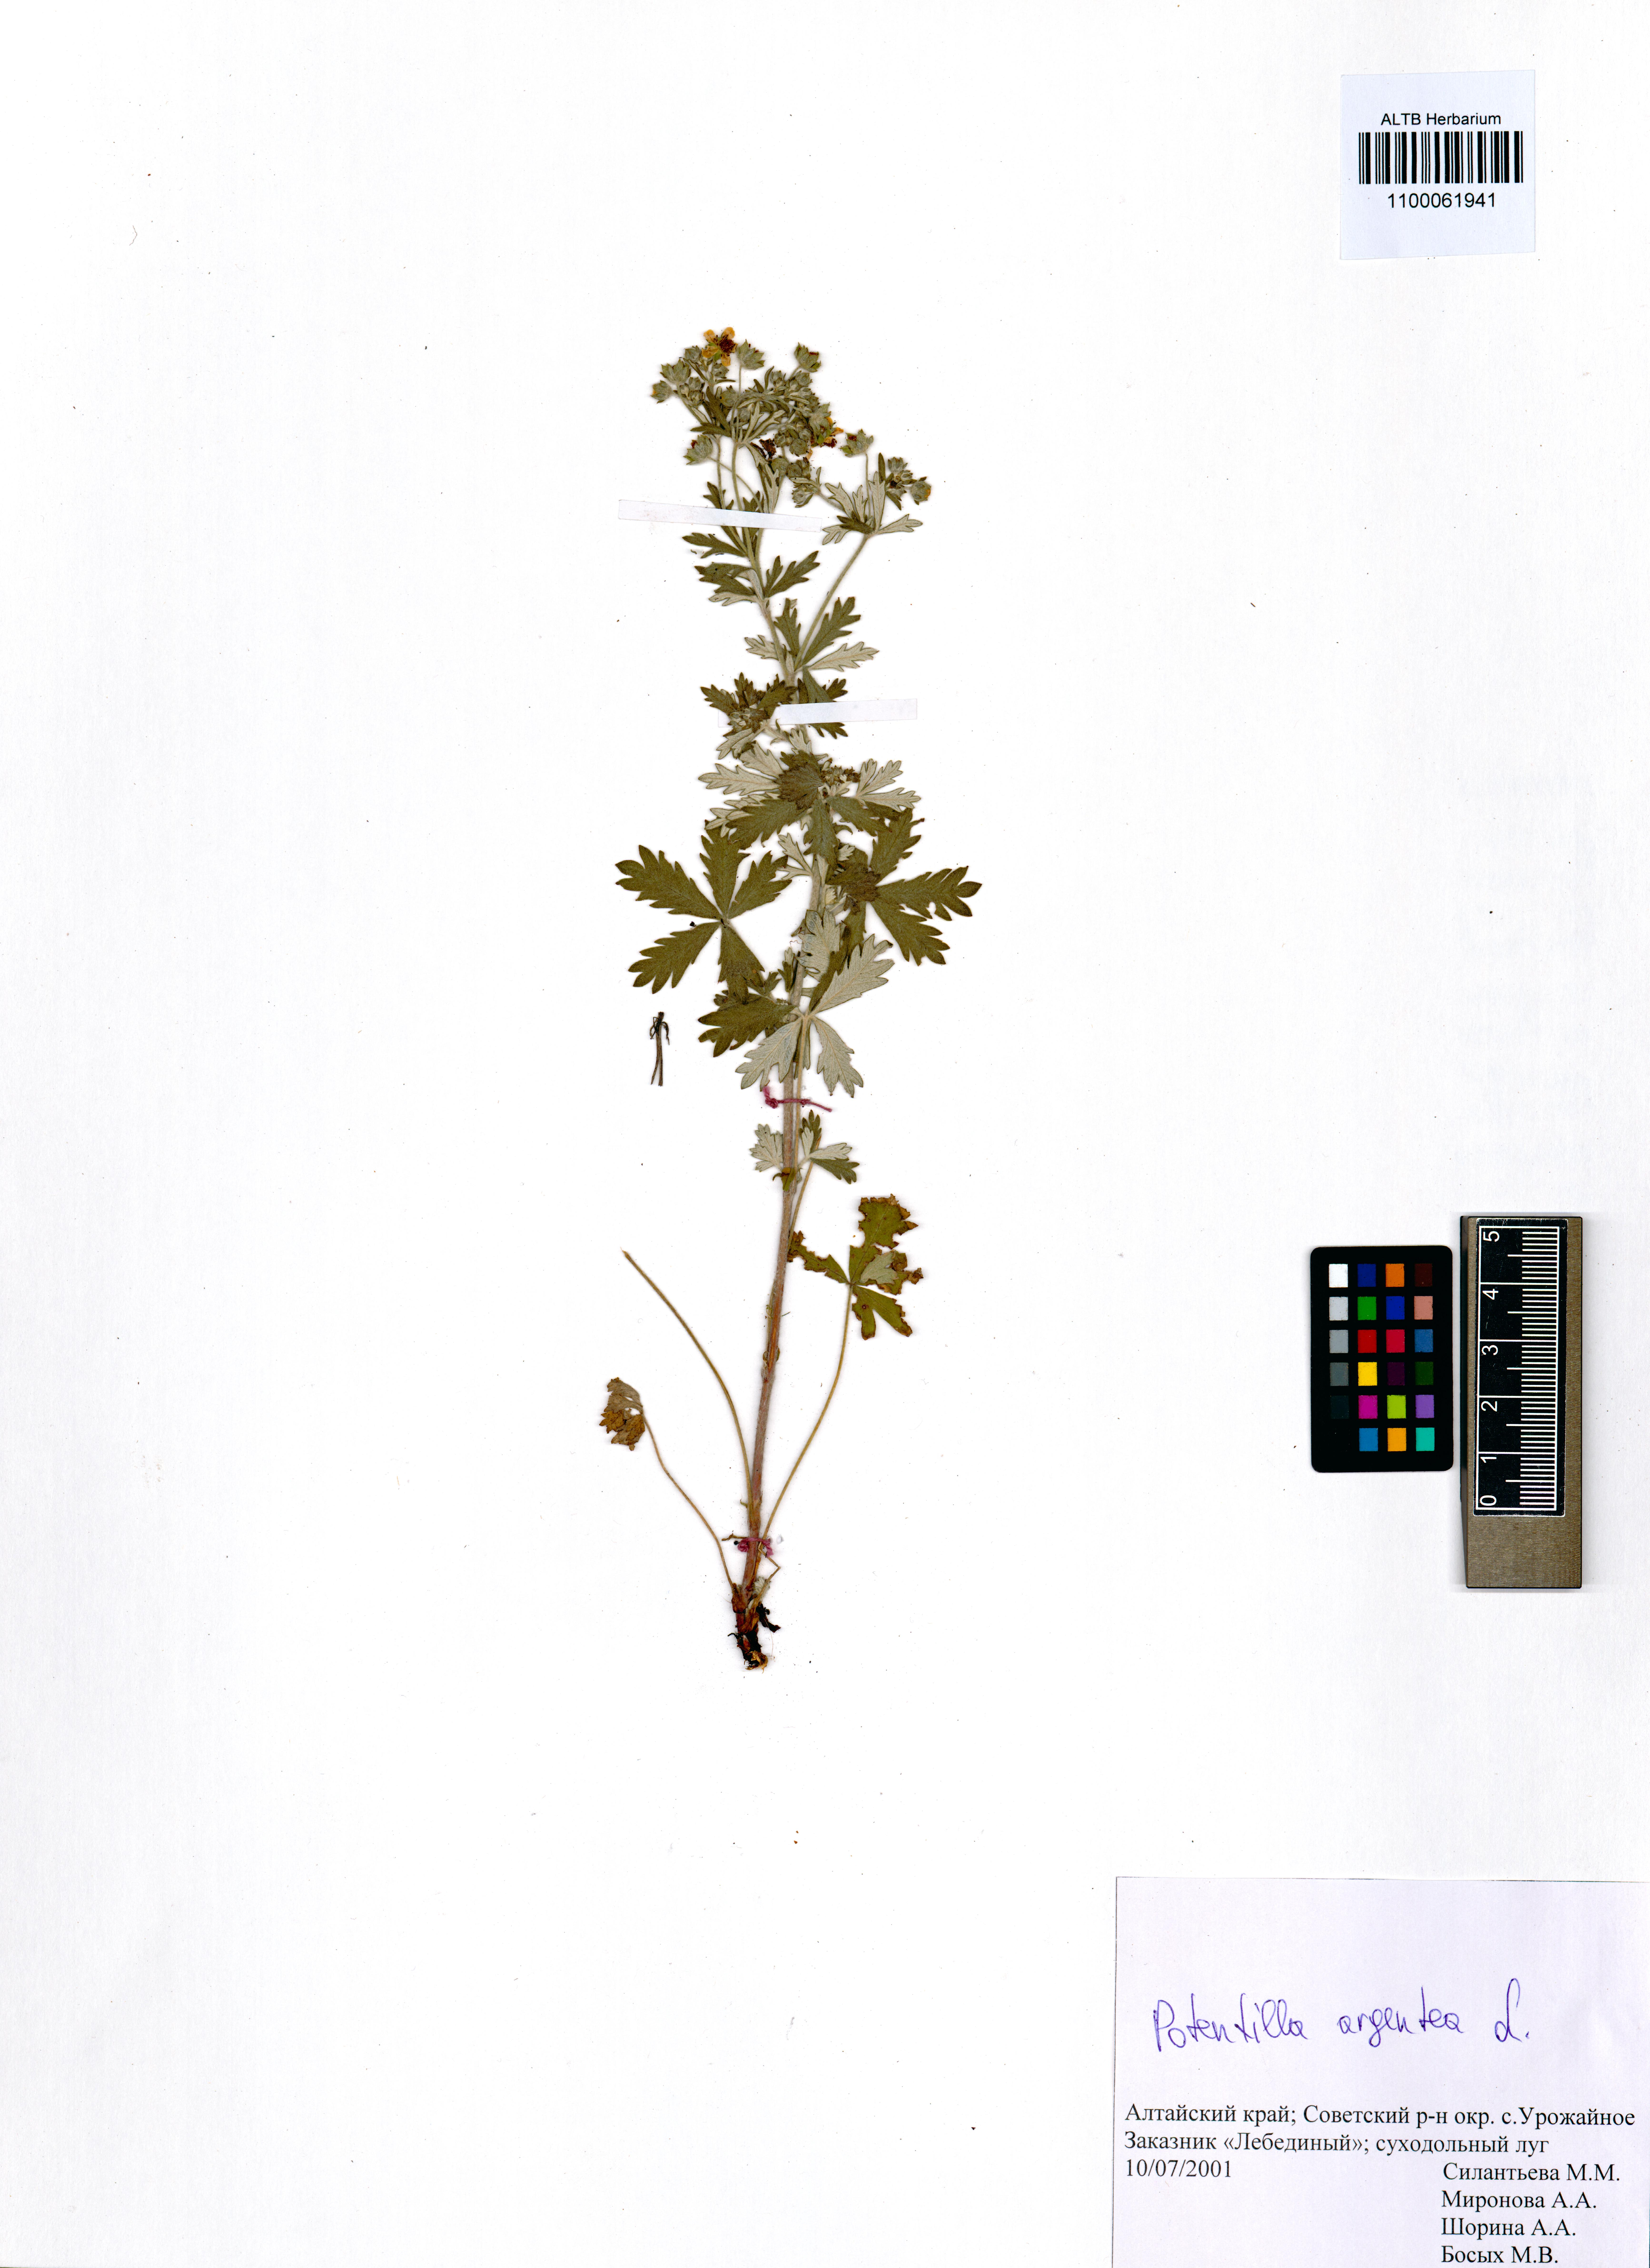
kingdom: Plantae
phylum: Tracheophyta
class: Magnoliopsida
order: Rosales
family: Rosaceae
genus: Potentilla
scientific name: Potentilla argentea
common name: Hoary cinquefoil
